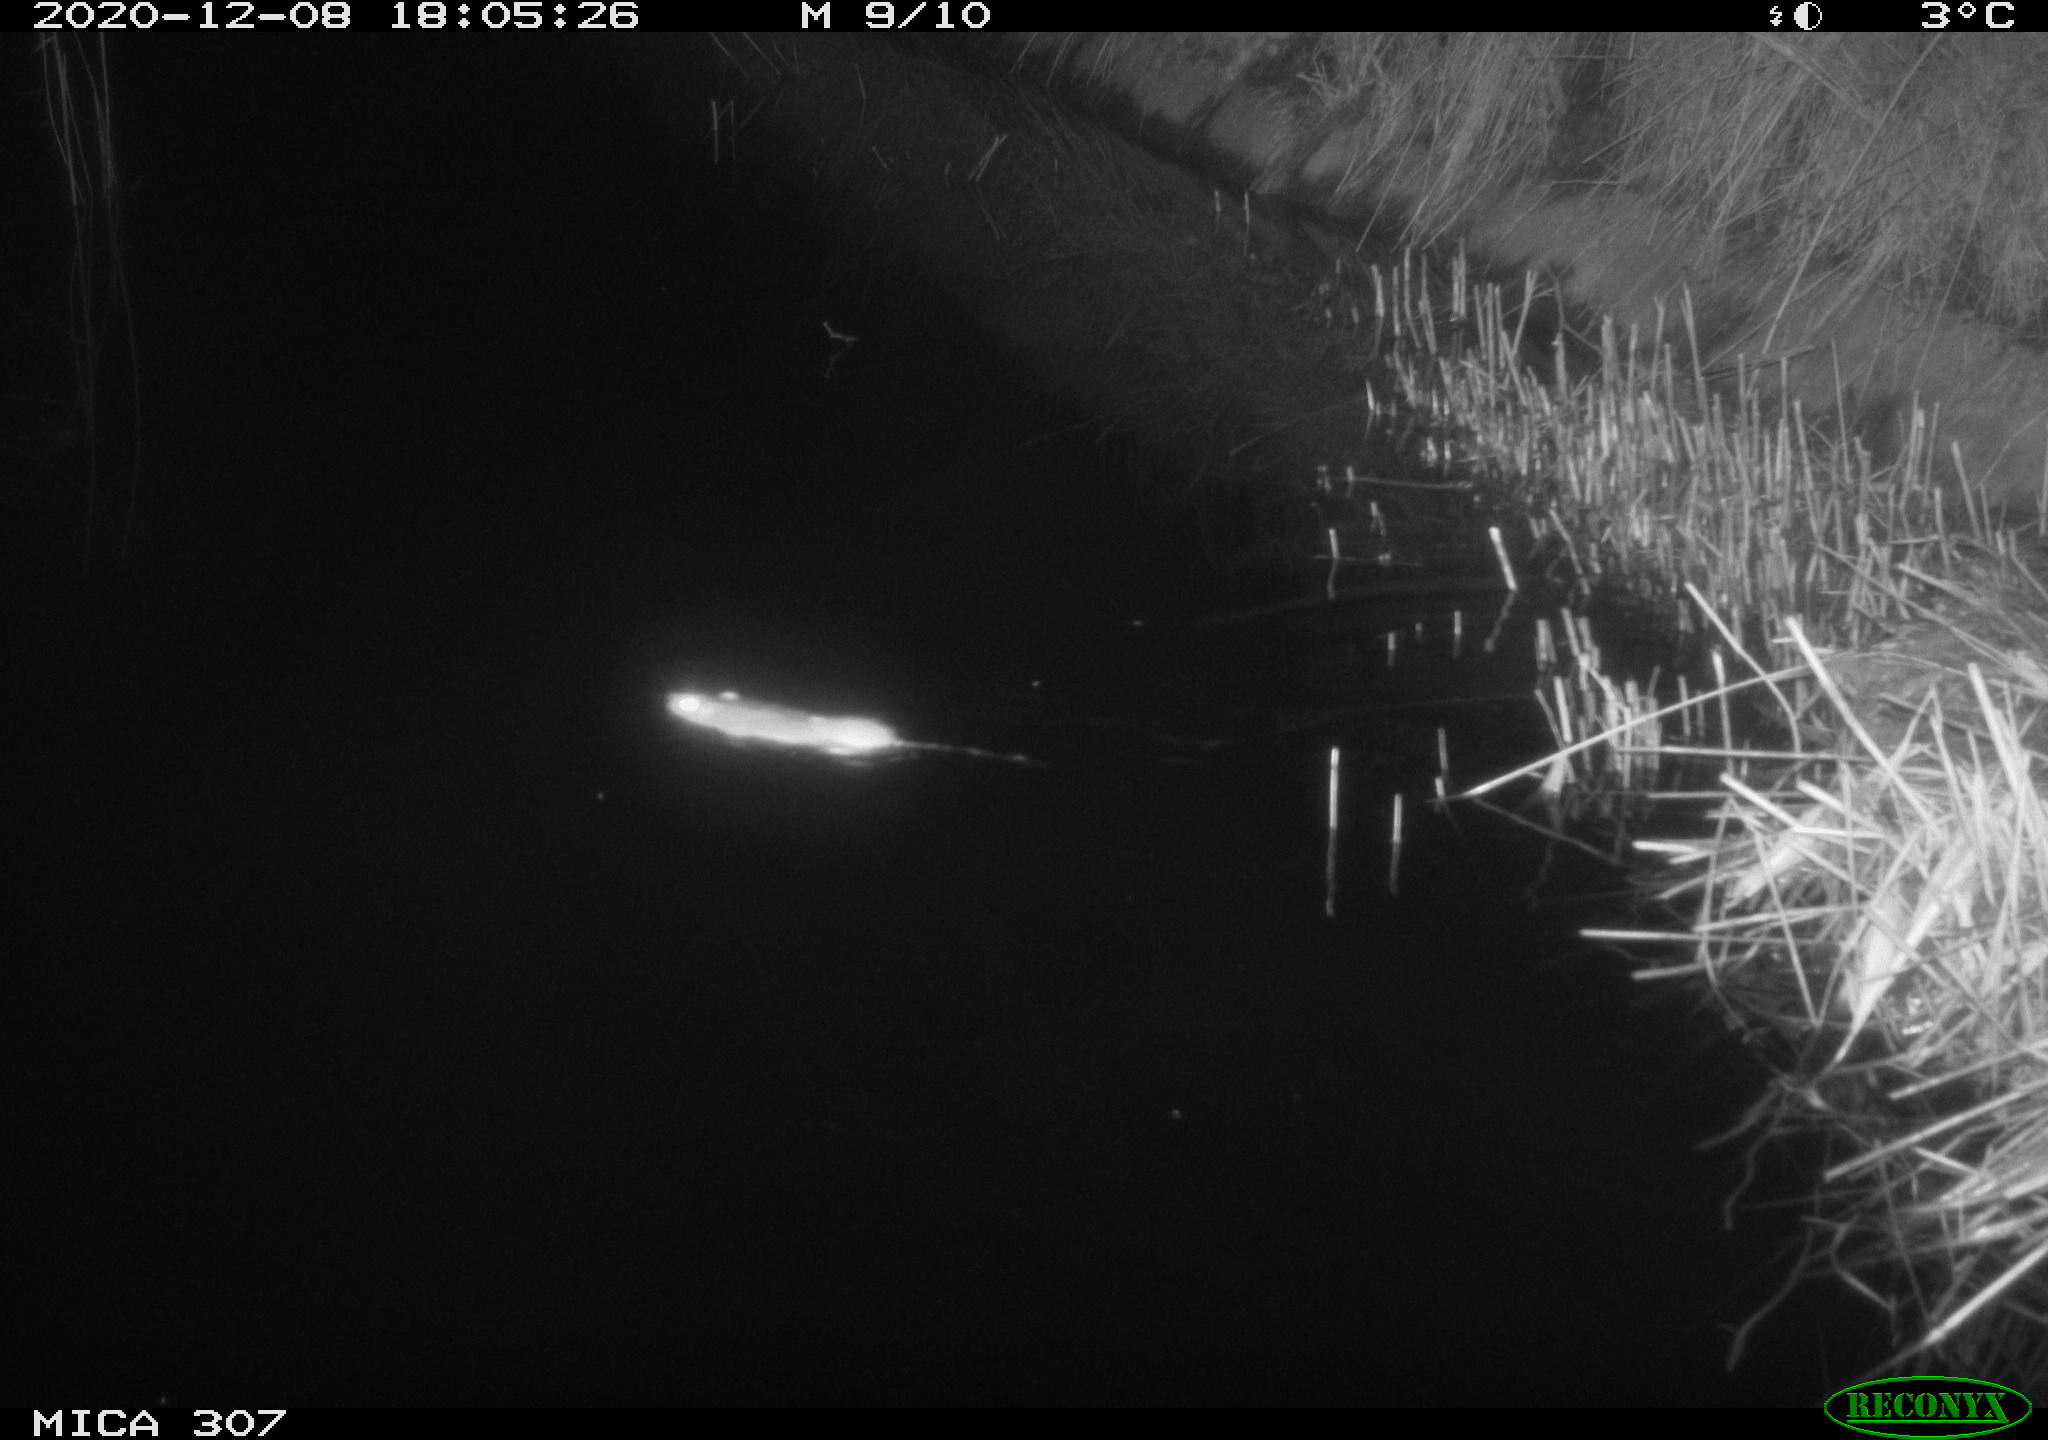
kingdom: Animalia
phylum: Chordata
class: Mammalia
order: Rodentia
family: Muridae
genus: Rattus
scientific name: Rattus norvegicus
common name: Brown rat
